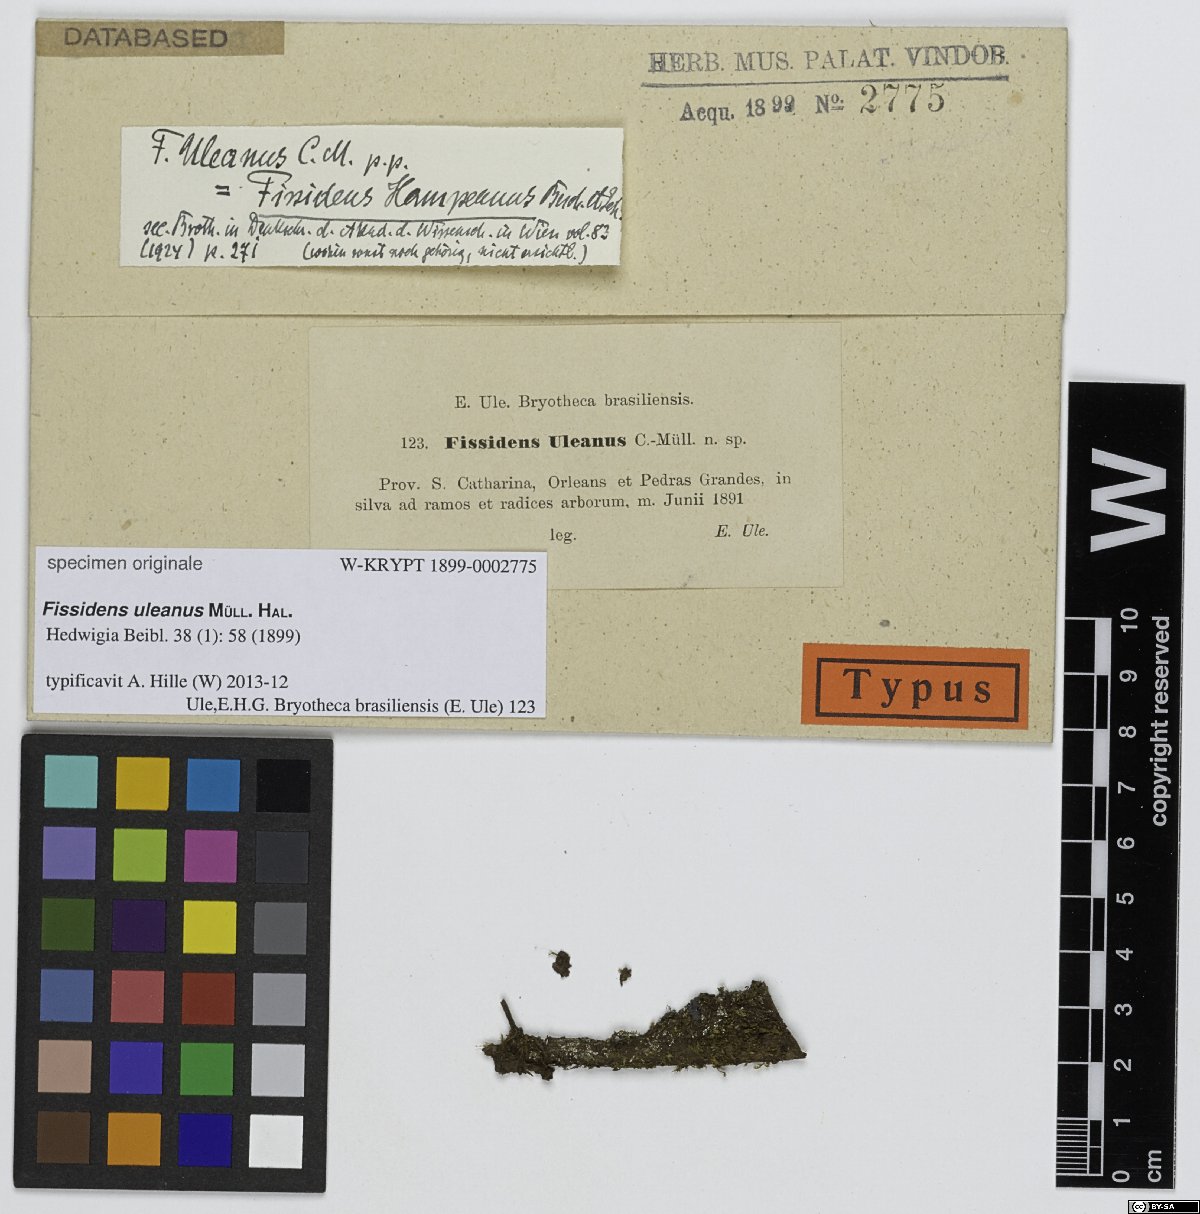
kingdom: Plantae
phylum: Bryophyta
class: Bryopsida
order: Dicranales
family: Fissidentaceae
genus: Fissidens
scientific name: Fissidens weirii
